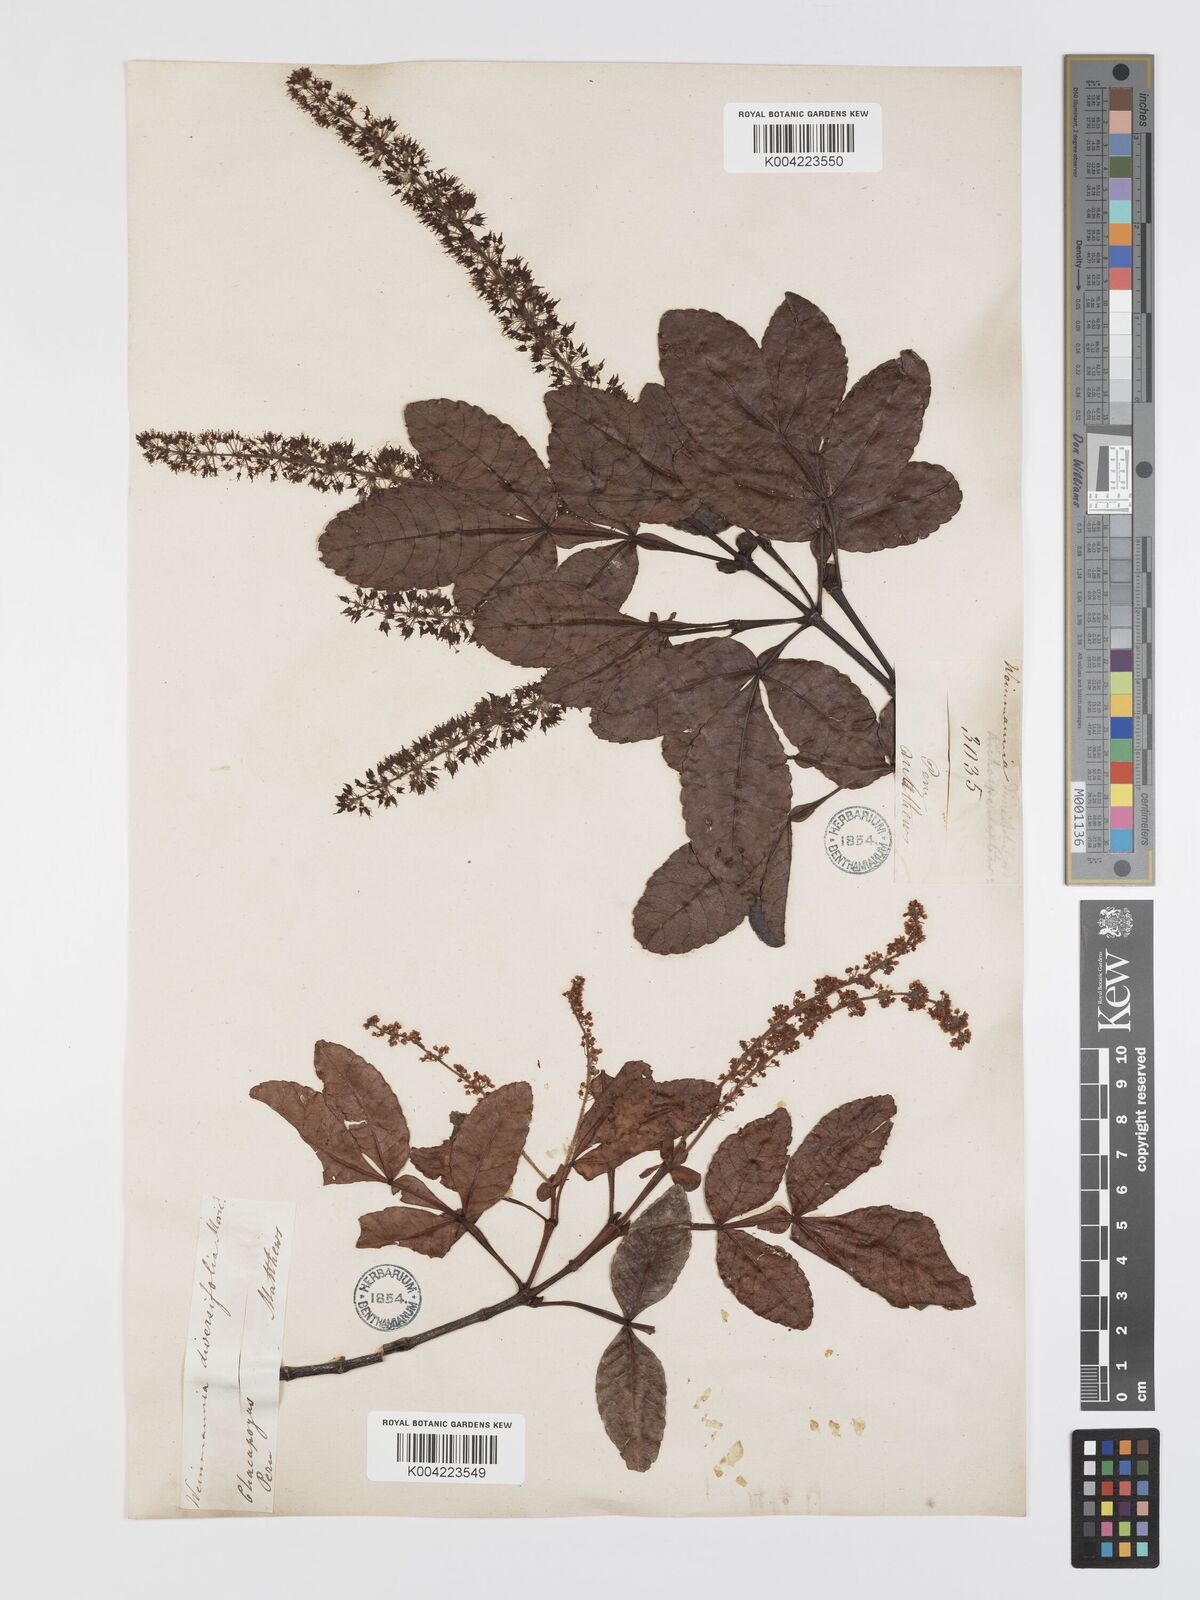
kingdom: Plantae
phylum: Tracheophyta
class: Magnoliopsida
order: Oxalidales
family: Cunoniaceae
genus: Weinmannia
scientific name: Weinmannia spruceana
